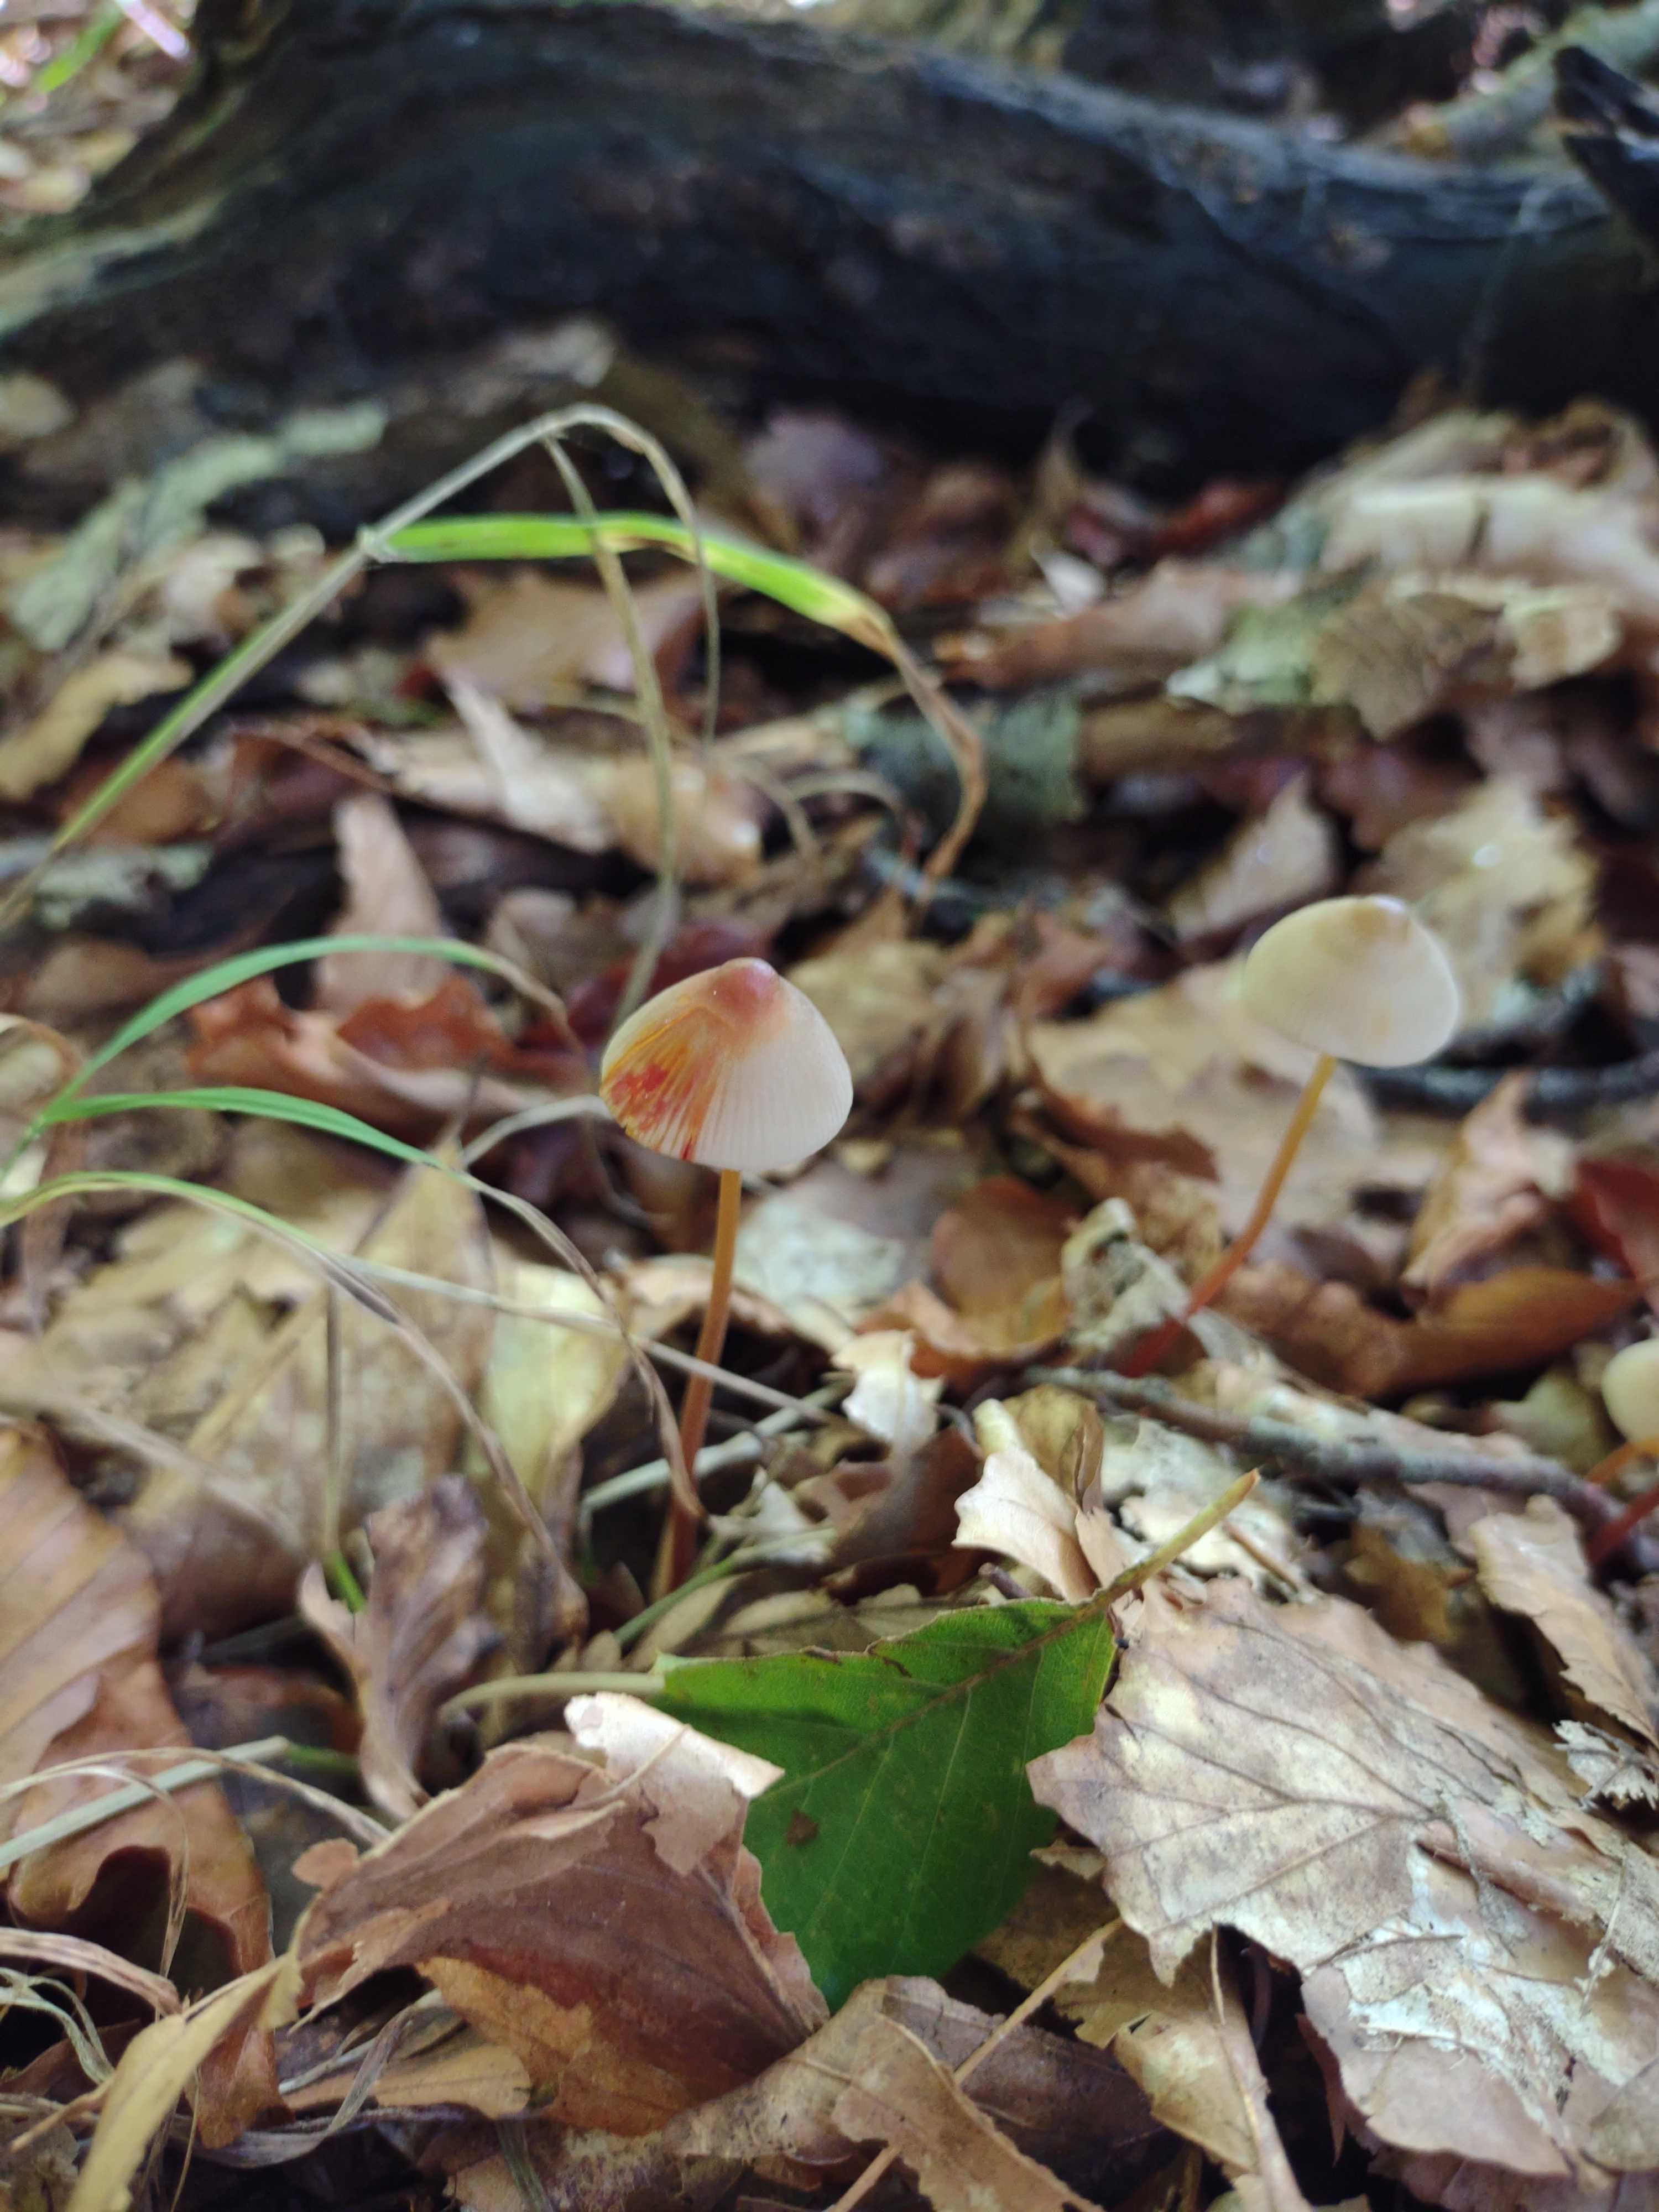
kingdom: Fungi
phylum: Basidiomycota
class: Agaricomycetes
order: Agaricales
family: Mycenaceae
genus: Mycena
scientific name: Mycena crocata
